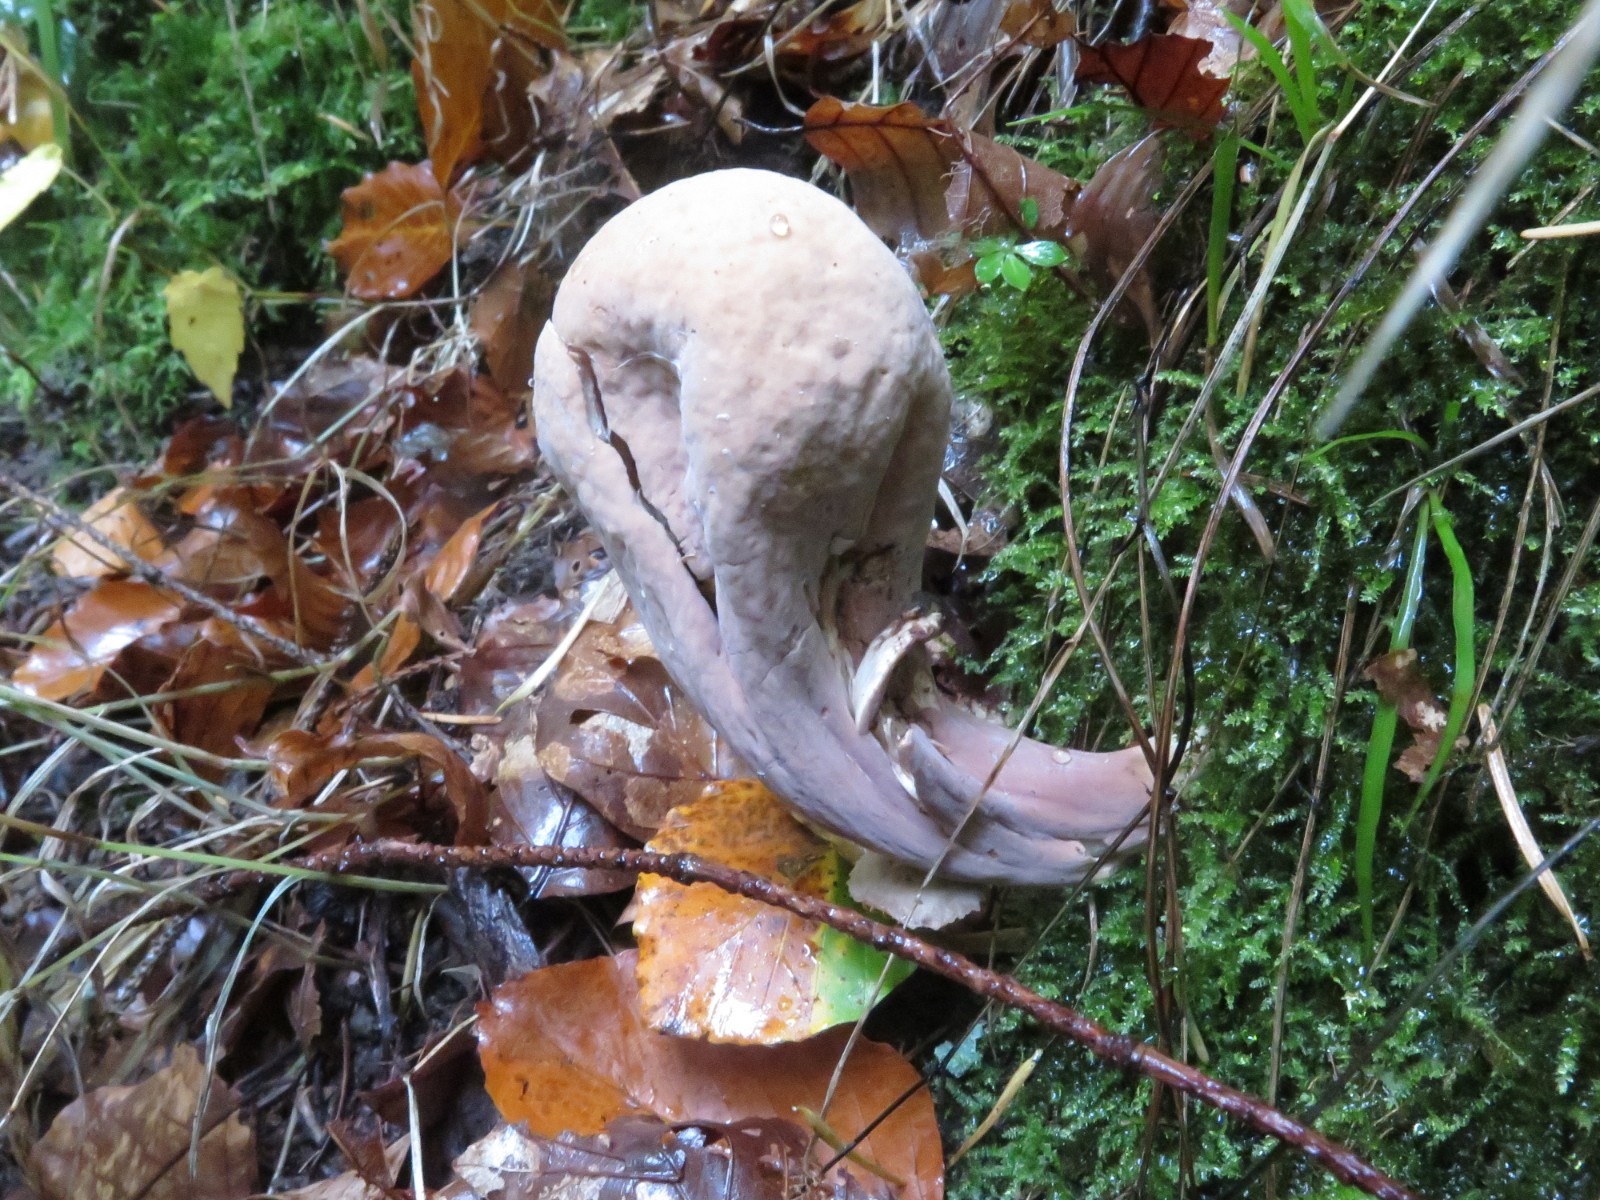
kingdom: Fungi
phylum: Basidiomycota
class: Agaricomycetes
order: Gomphales
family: Clavariadelphaceae
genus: Clavariadelphus
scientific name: Clavariadelphus pistillaris
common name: herkules-kæmpekølle
